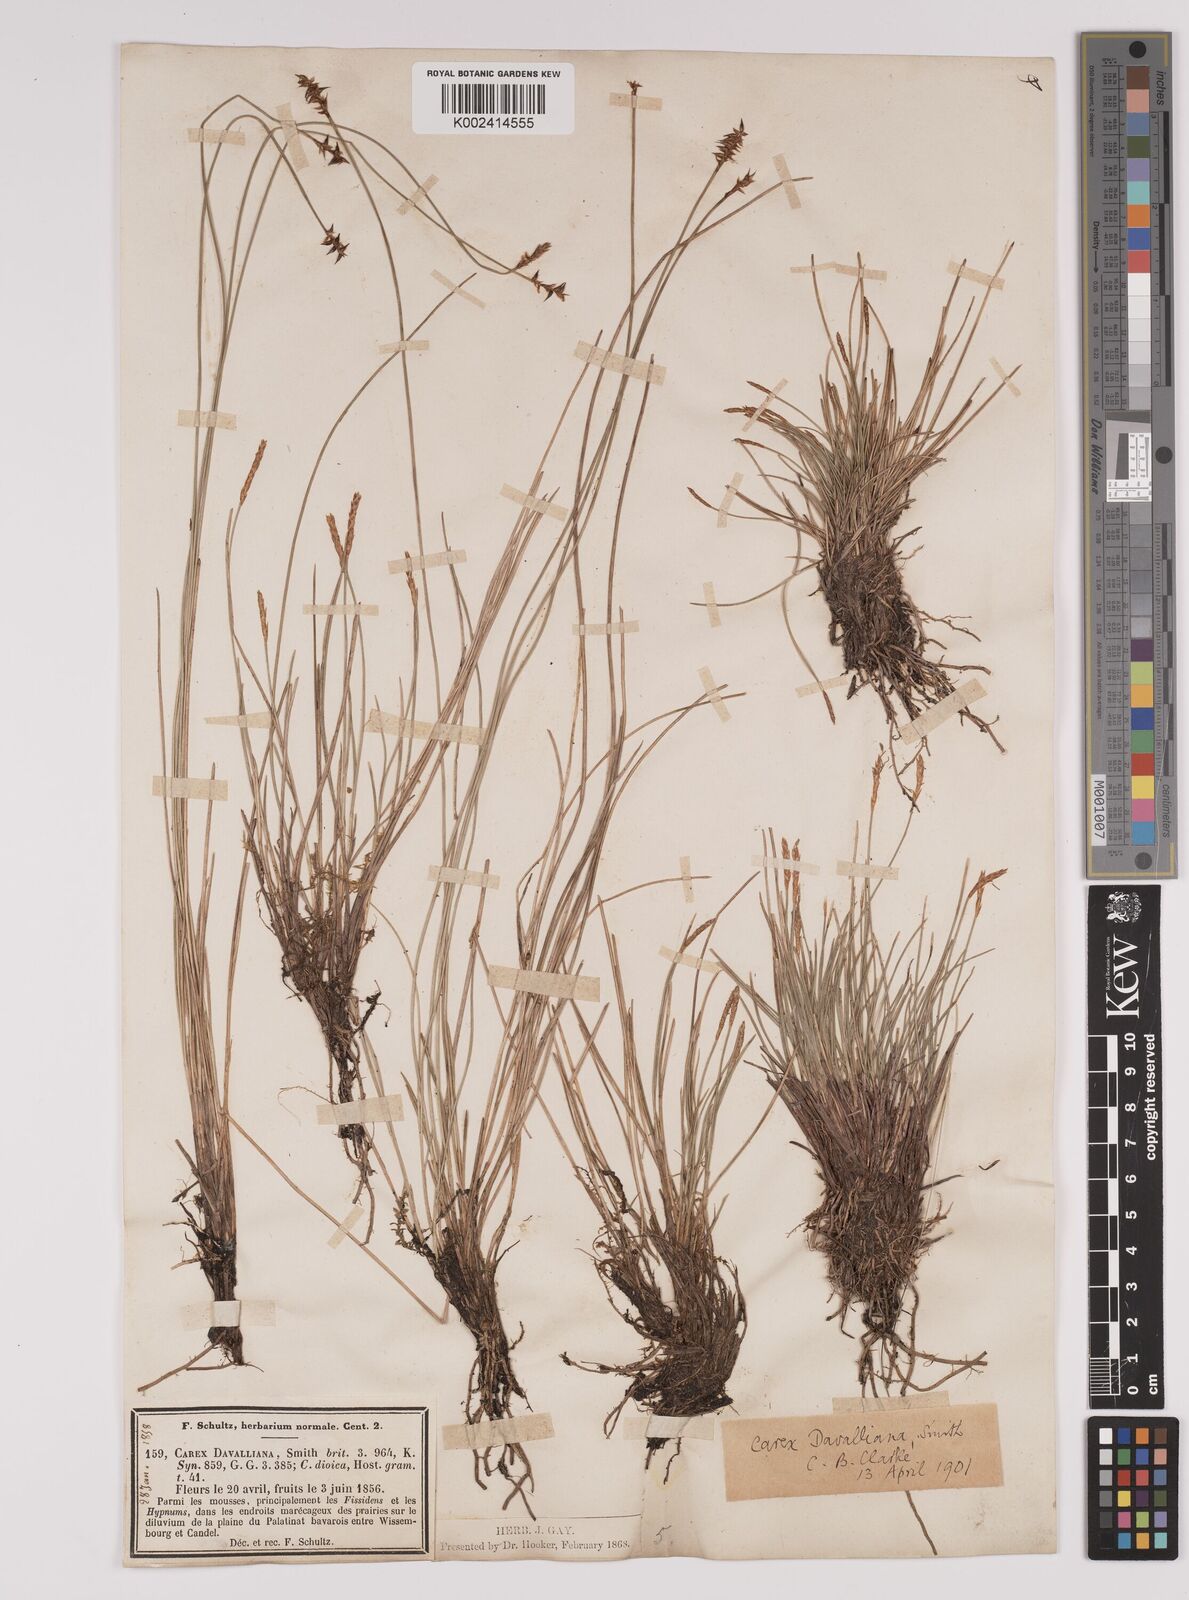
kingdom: Plantae
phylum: Tracheophyta
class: Liliopsida
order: Poales
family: Cyperaceae
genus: Carex
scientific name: Carex davalliana
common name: Davall's sedge
